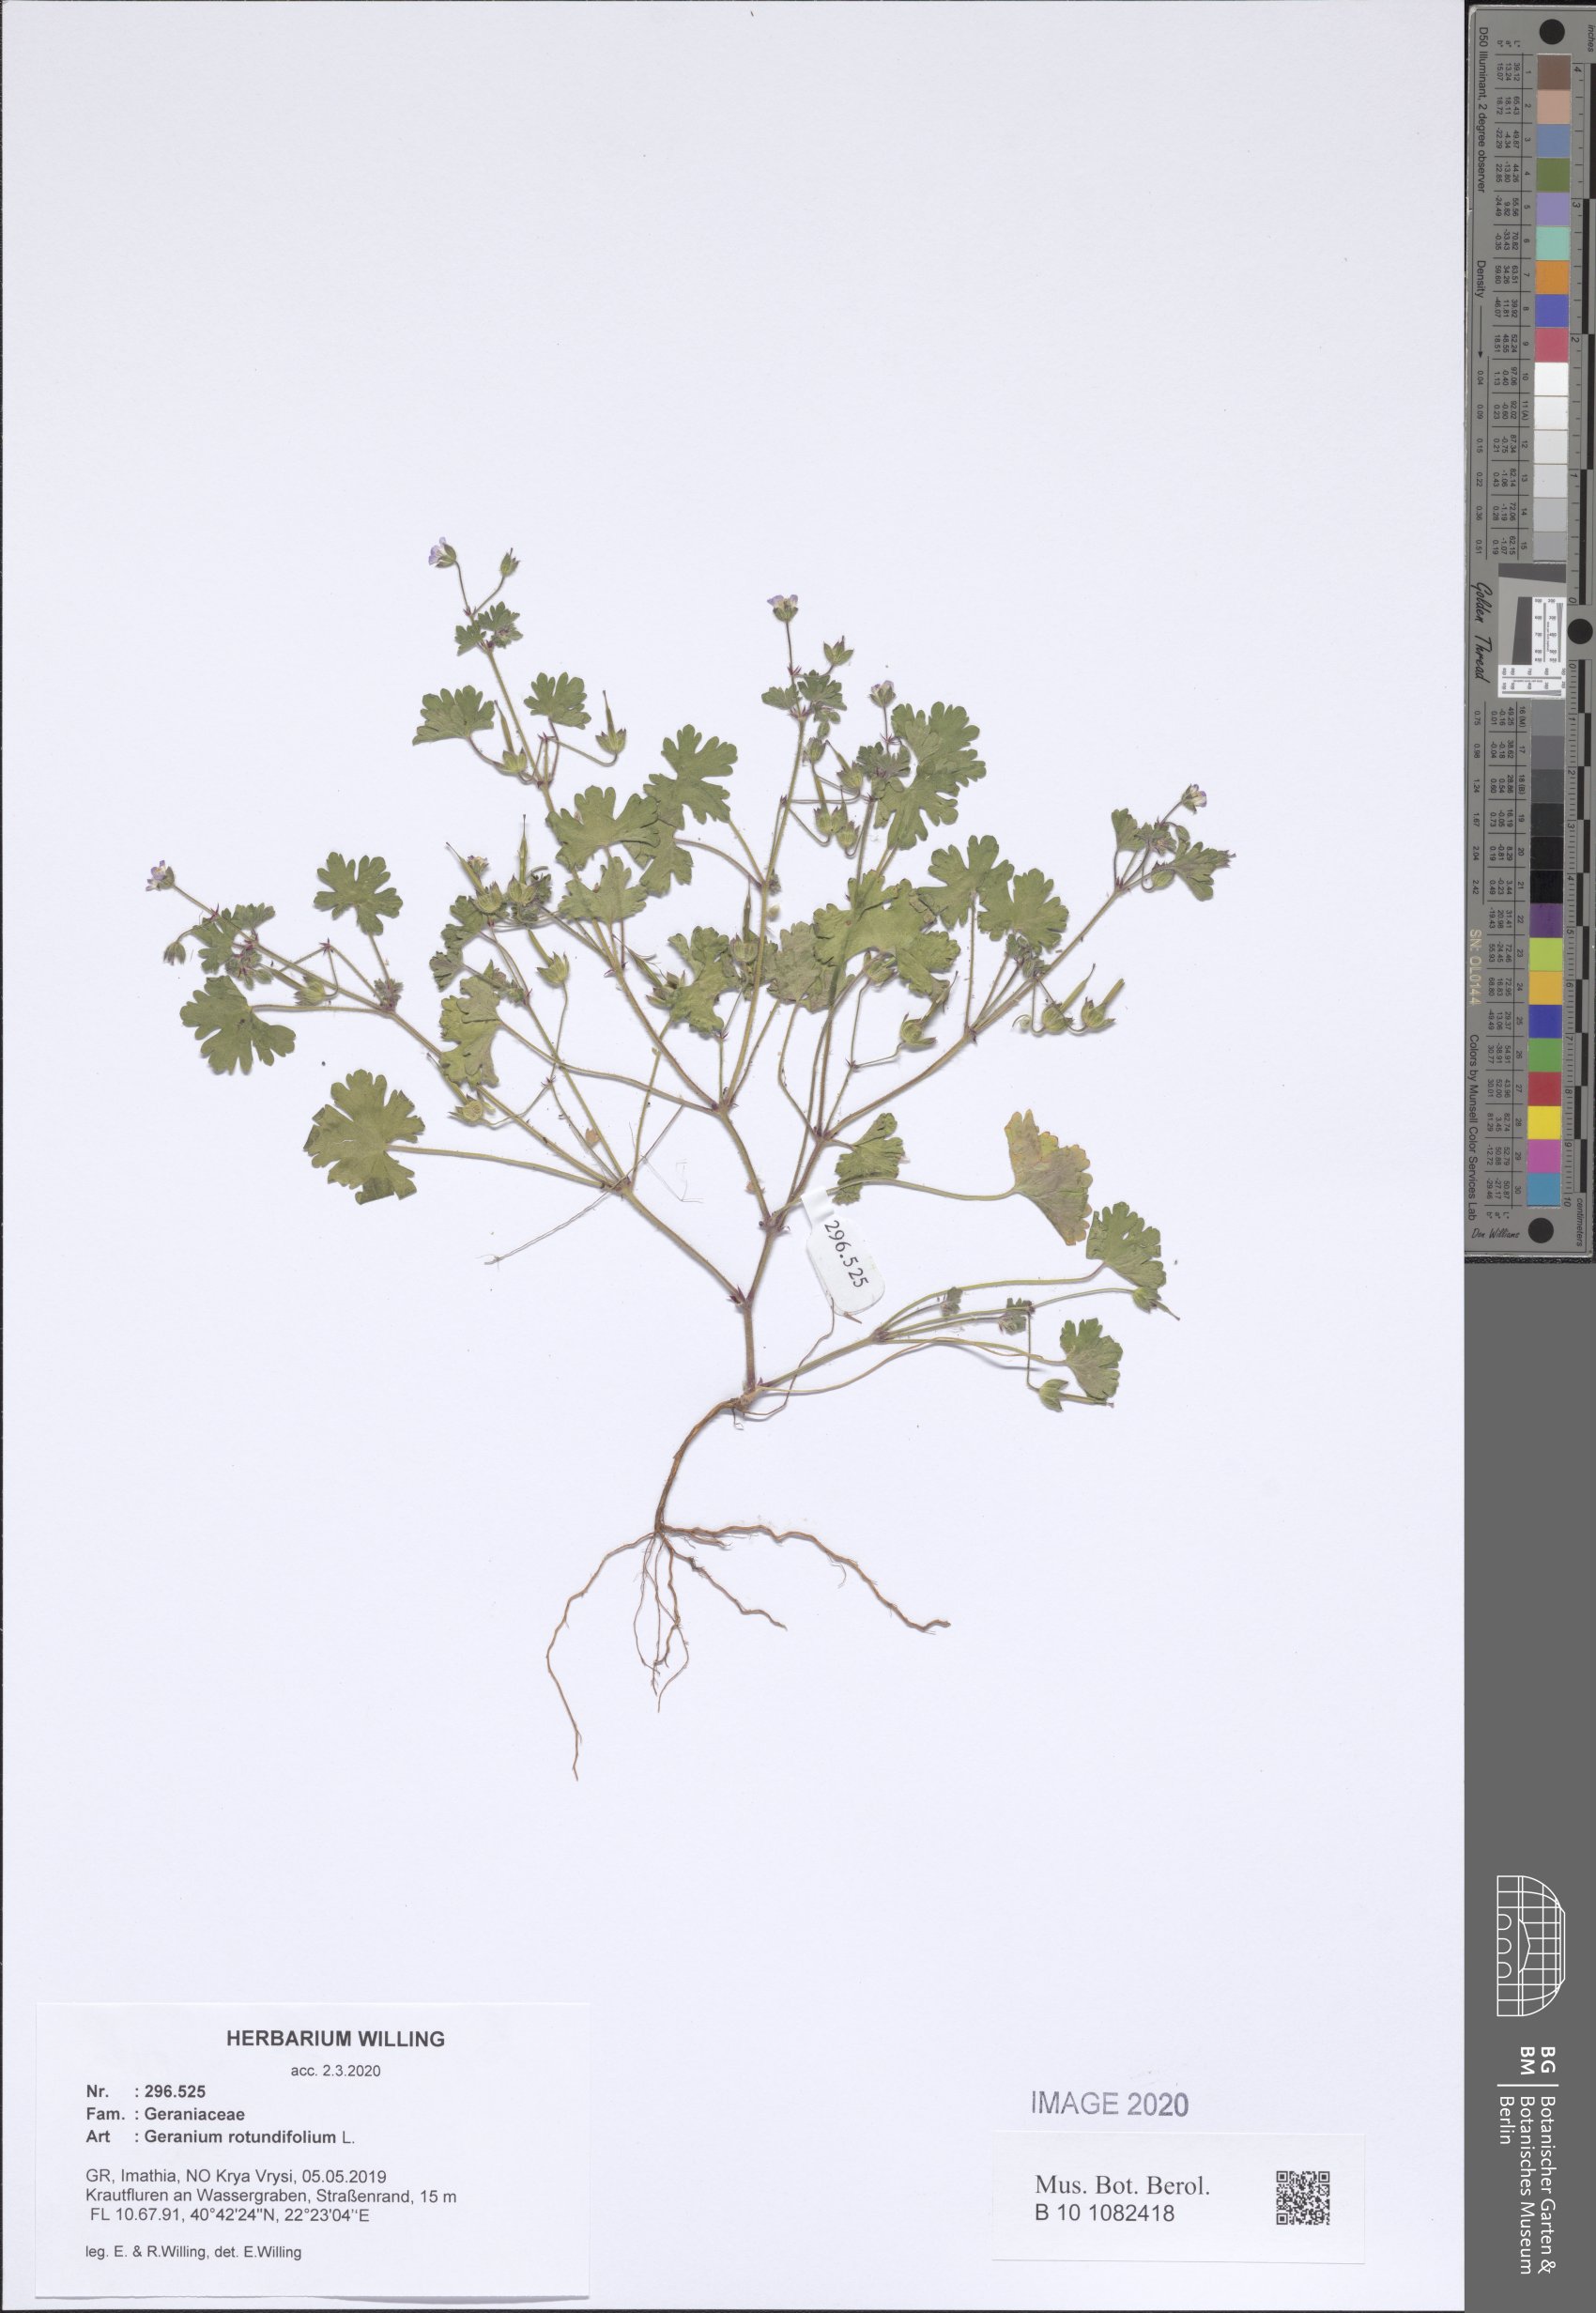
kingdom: Plantae
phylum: Tracheophyta
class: Magnoliopsida
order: Geraniales
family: Geraniaceae
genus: Geranium
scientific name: Geranium rotundifolium
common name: Round-leaved crane's-bill
